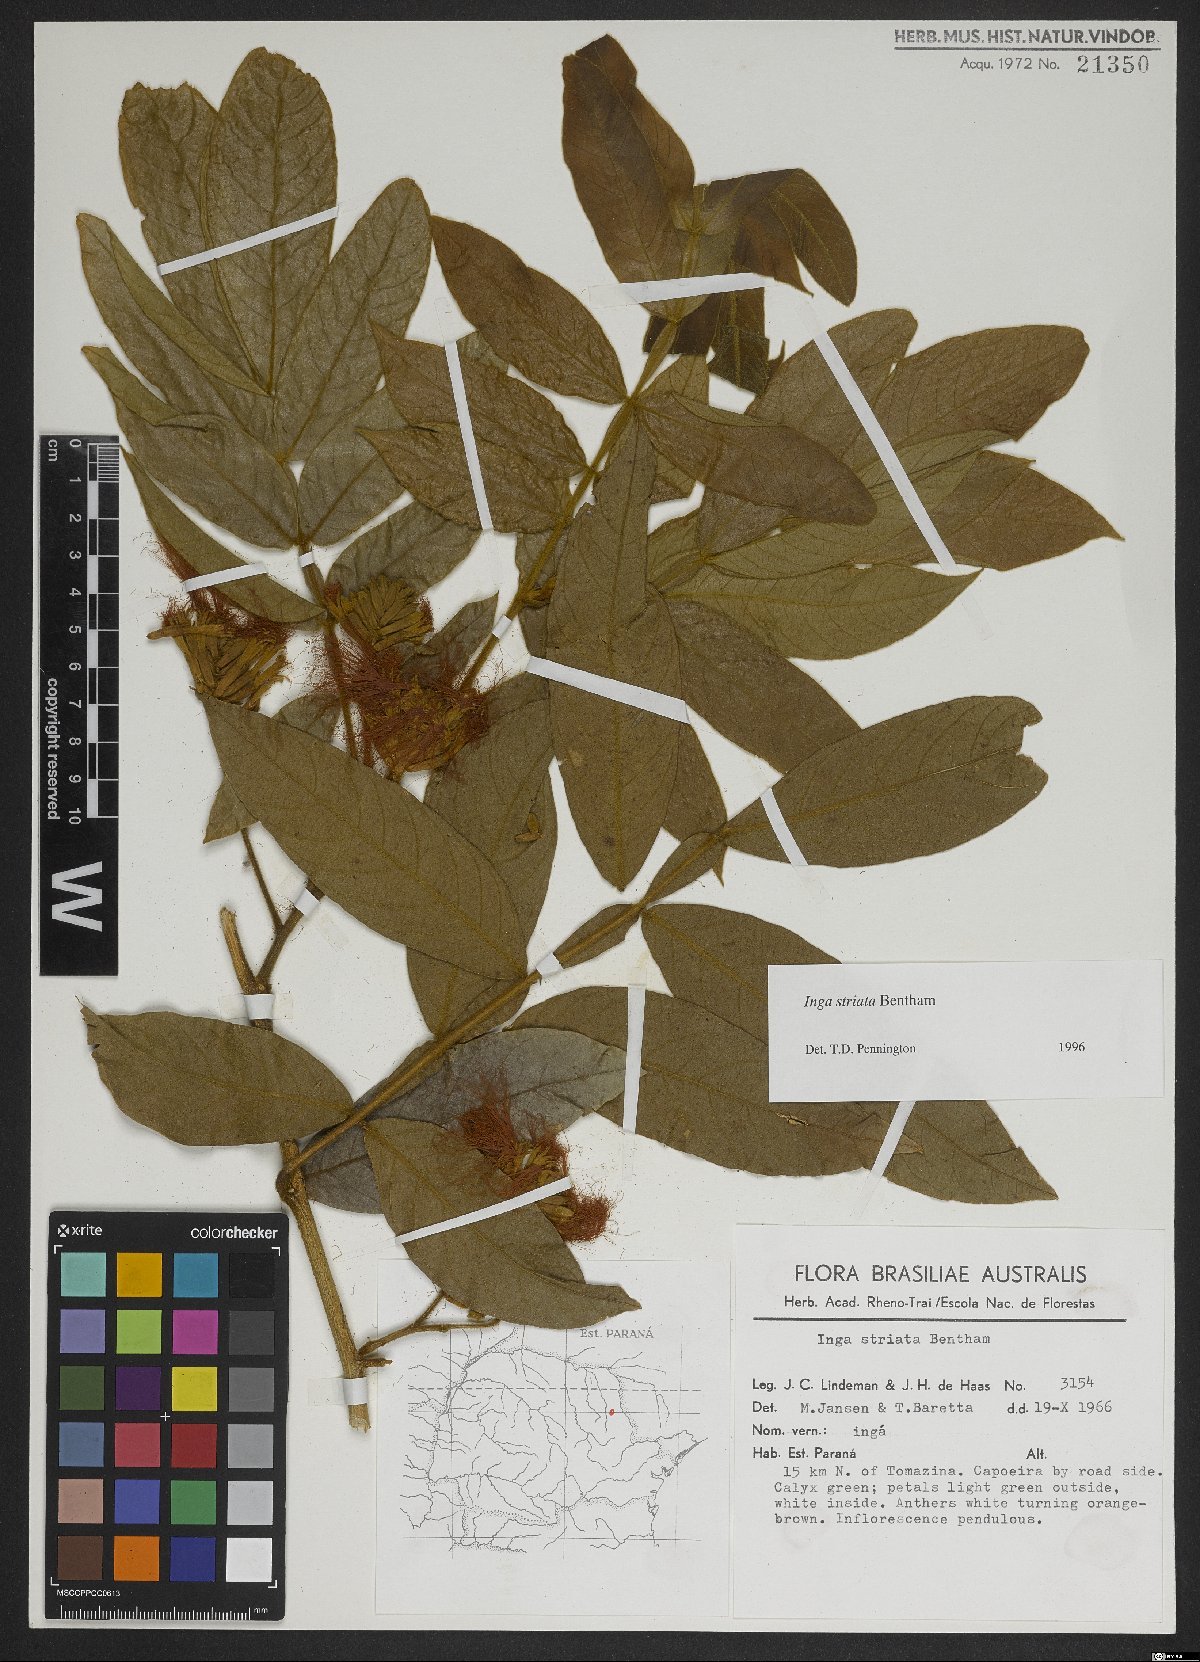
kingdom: Plantae
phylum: Tracheophyta
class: Magnoliopsida
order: Fabales
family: Fabaceae
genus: Inga
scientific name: Inga striata
